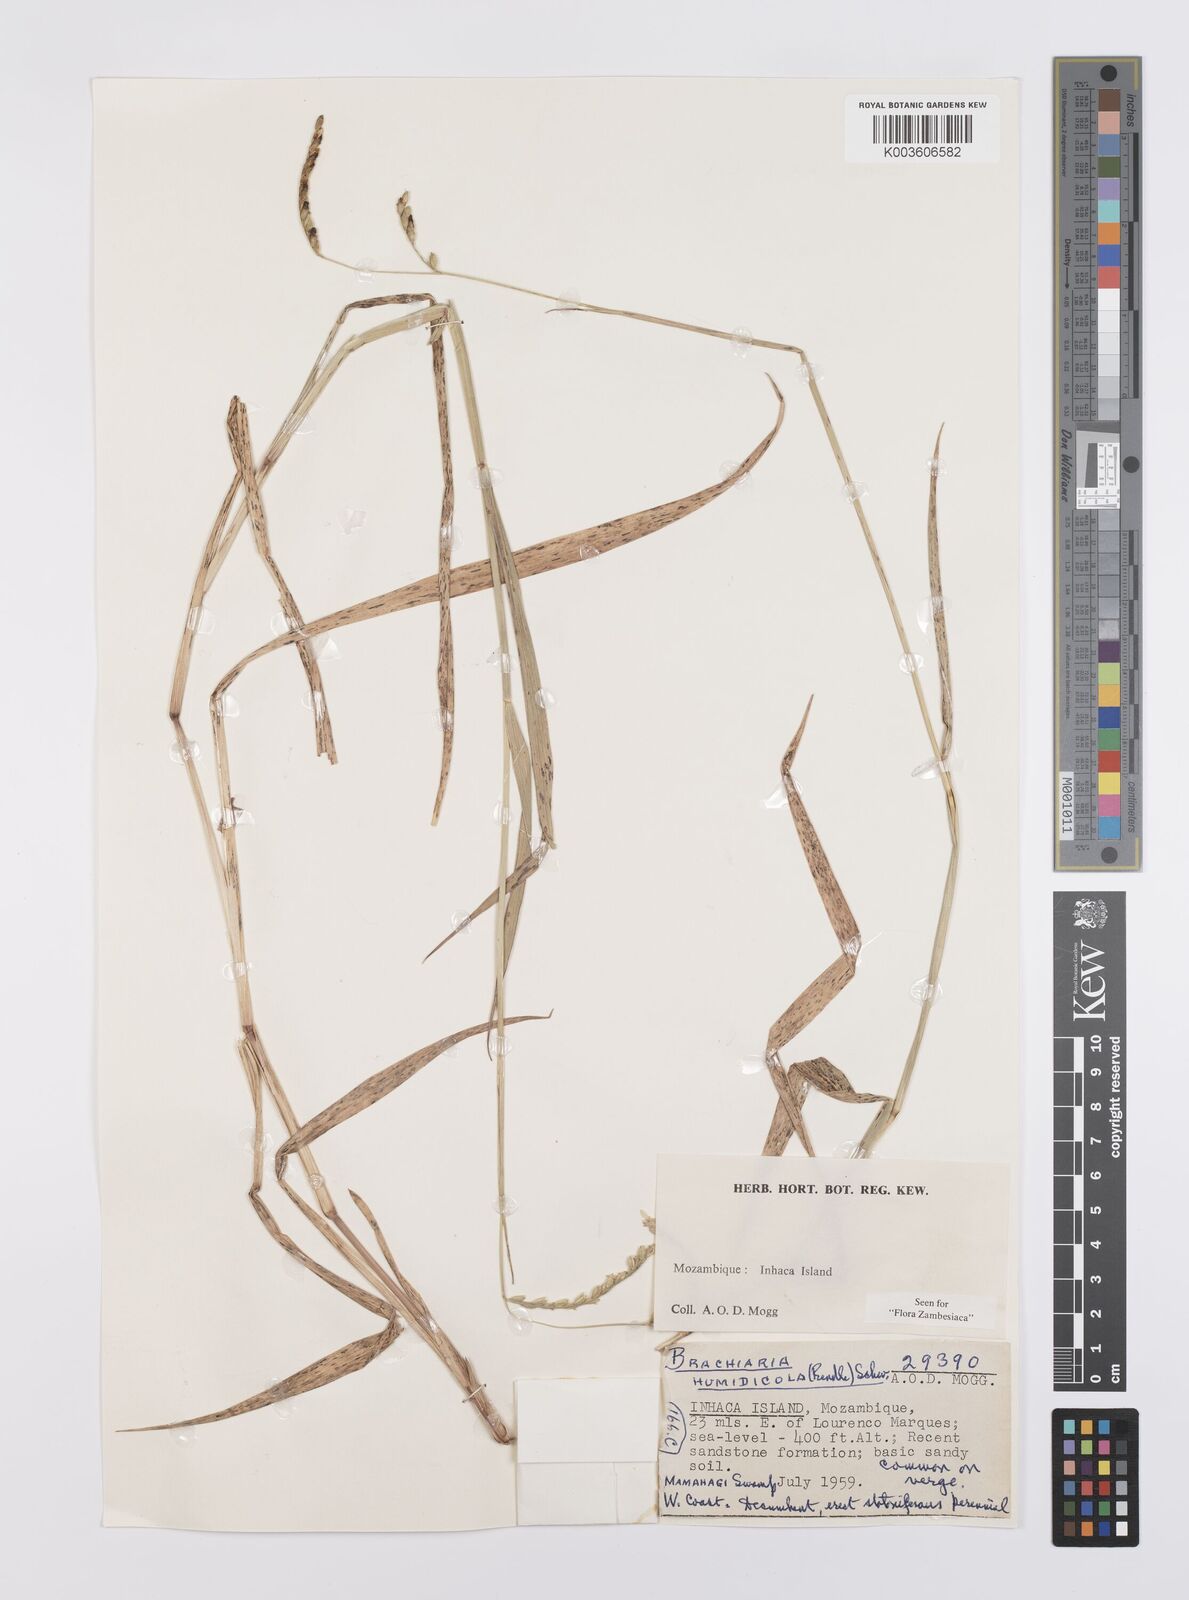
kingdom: Plantae
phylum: Tracheophyta
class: Liliopsida
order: Poales
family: Poaceae
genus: Urochloa
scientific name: Urochloa dictyoneura
